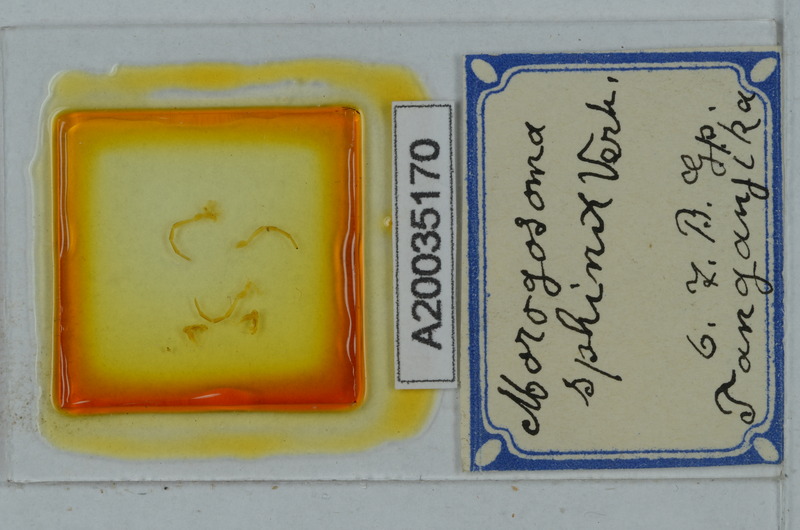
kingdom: Animalia
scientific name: Animalia
